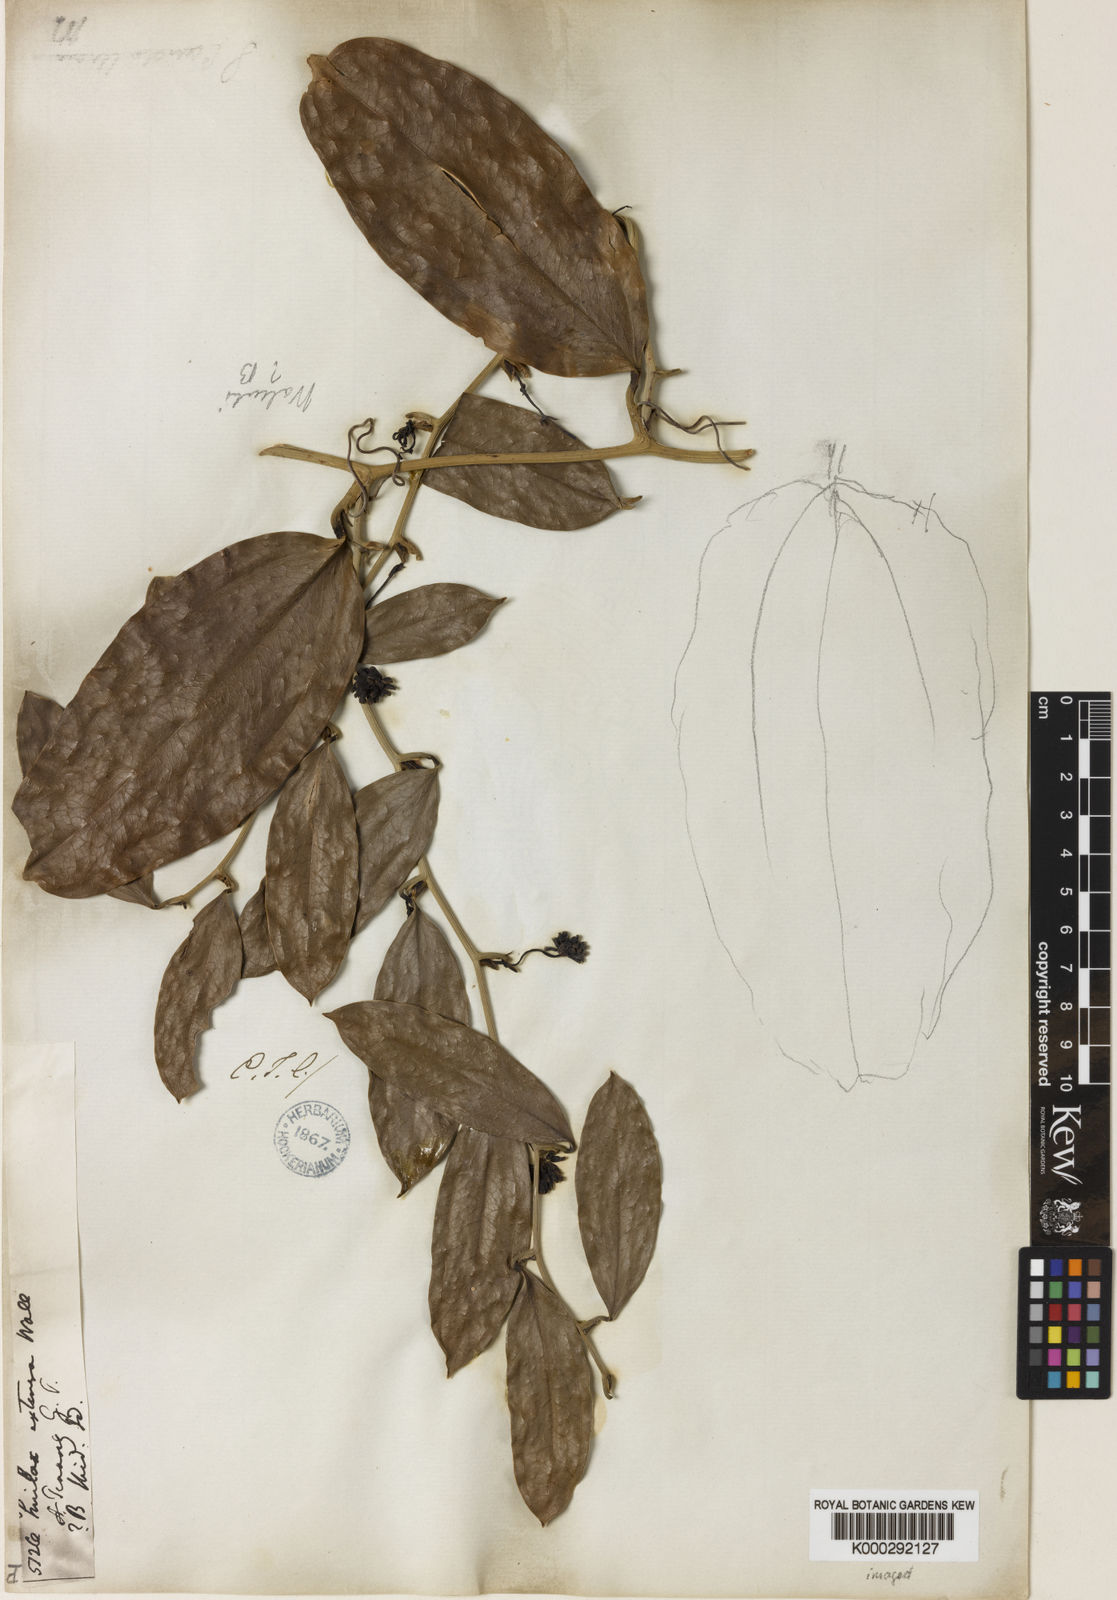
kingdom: Plantae
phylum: Tracheophyta
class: Liliopsida
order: Liliales
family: Smilacaceae
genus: Smilax
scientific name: Smilax extensa
